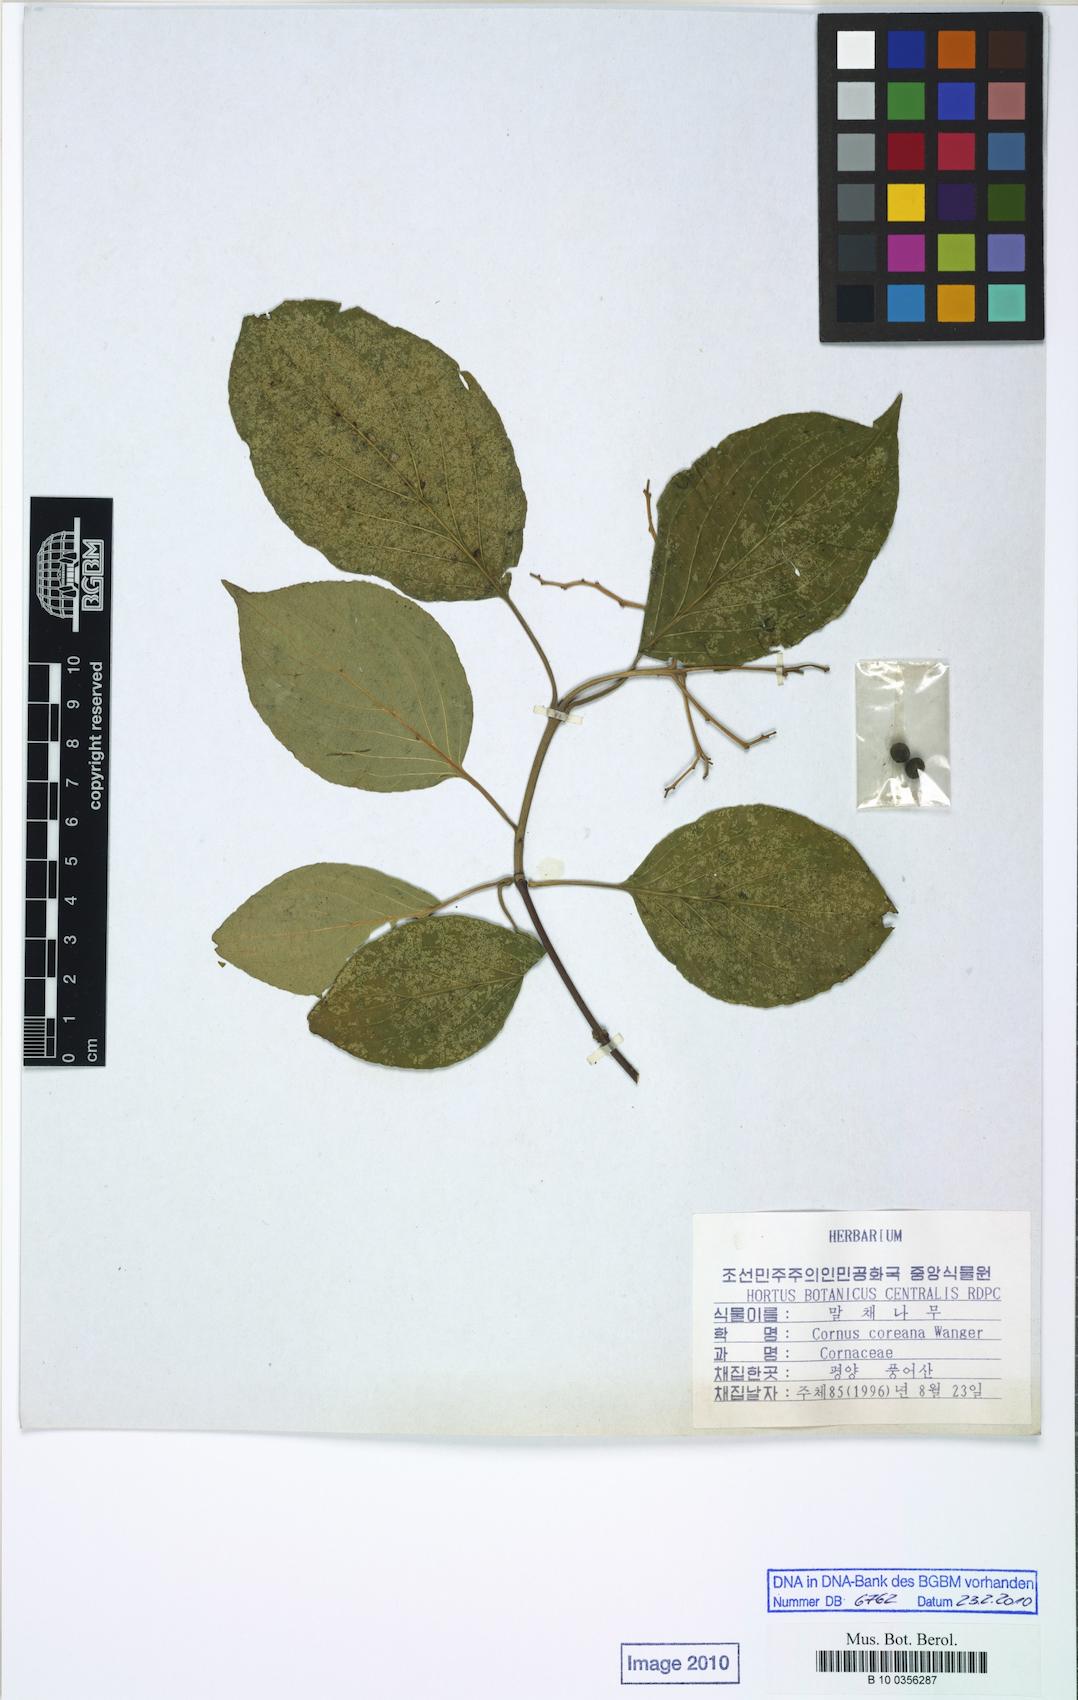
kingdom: Plantae
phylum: Tracheophyta
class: Magnoliopsida
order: Cornales
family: Cornaceae
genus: Cornus
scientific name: Cornus walteri
